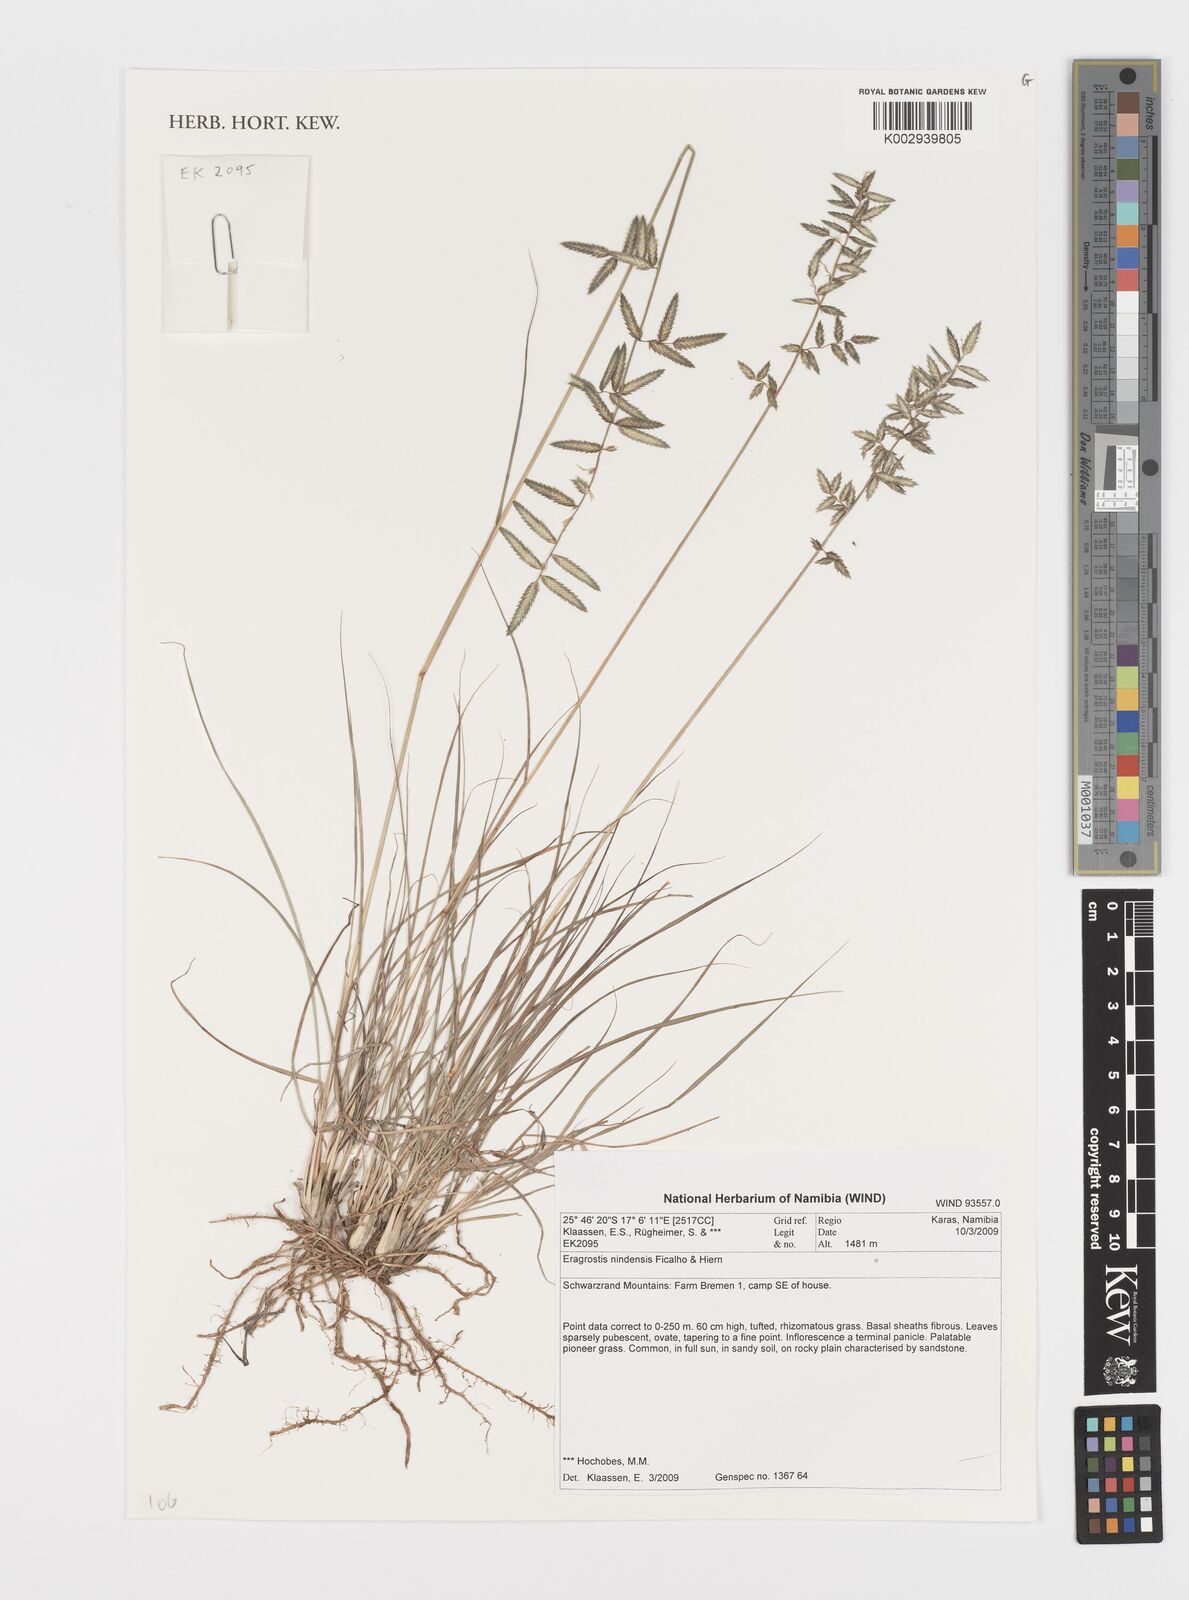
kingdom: Plantae
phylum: Tracheophyta
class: Liliopsida
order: Poales
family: Poaceae
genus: Eragrostis
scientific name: Eragrostis nindensis
